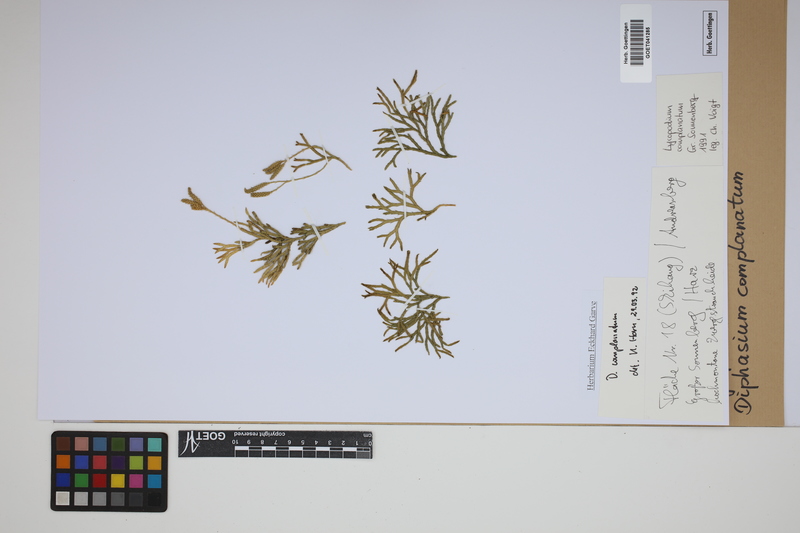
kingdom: Plantae
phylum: Tracheophyta
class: Lycopodiopsida
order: Lycopodiales
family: Lycopodiaceae
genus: Diphasiastrum
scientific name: Diphasiastrum complanatum
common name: Northern running-pine
